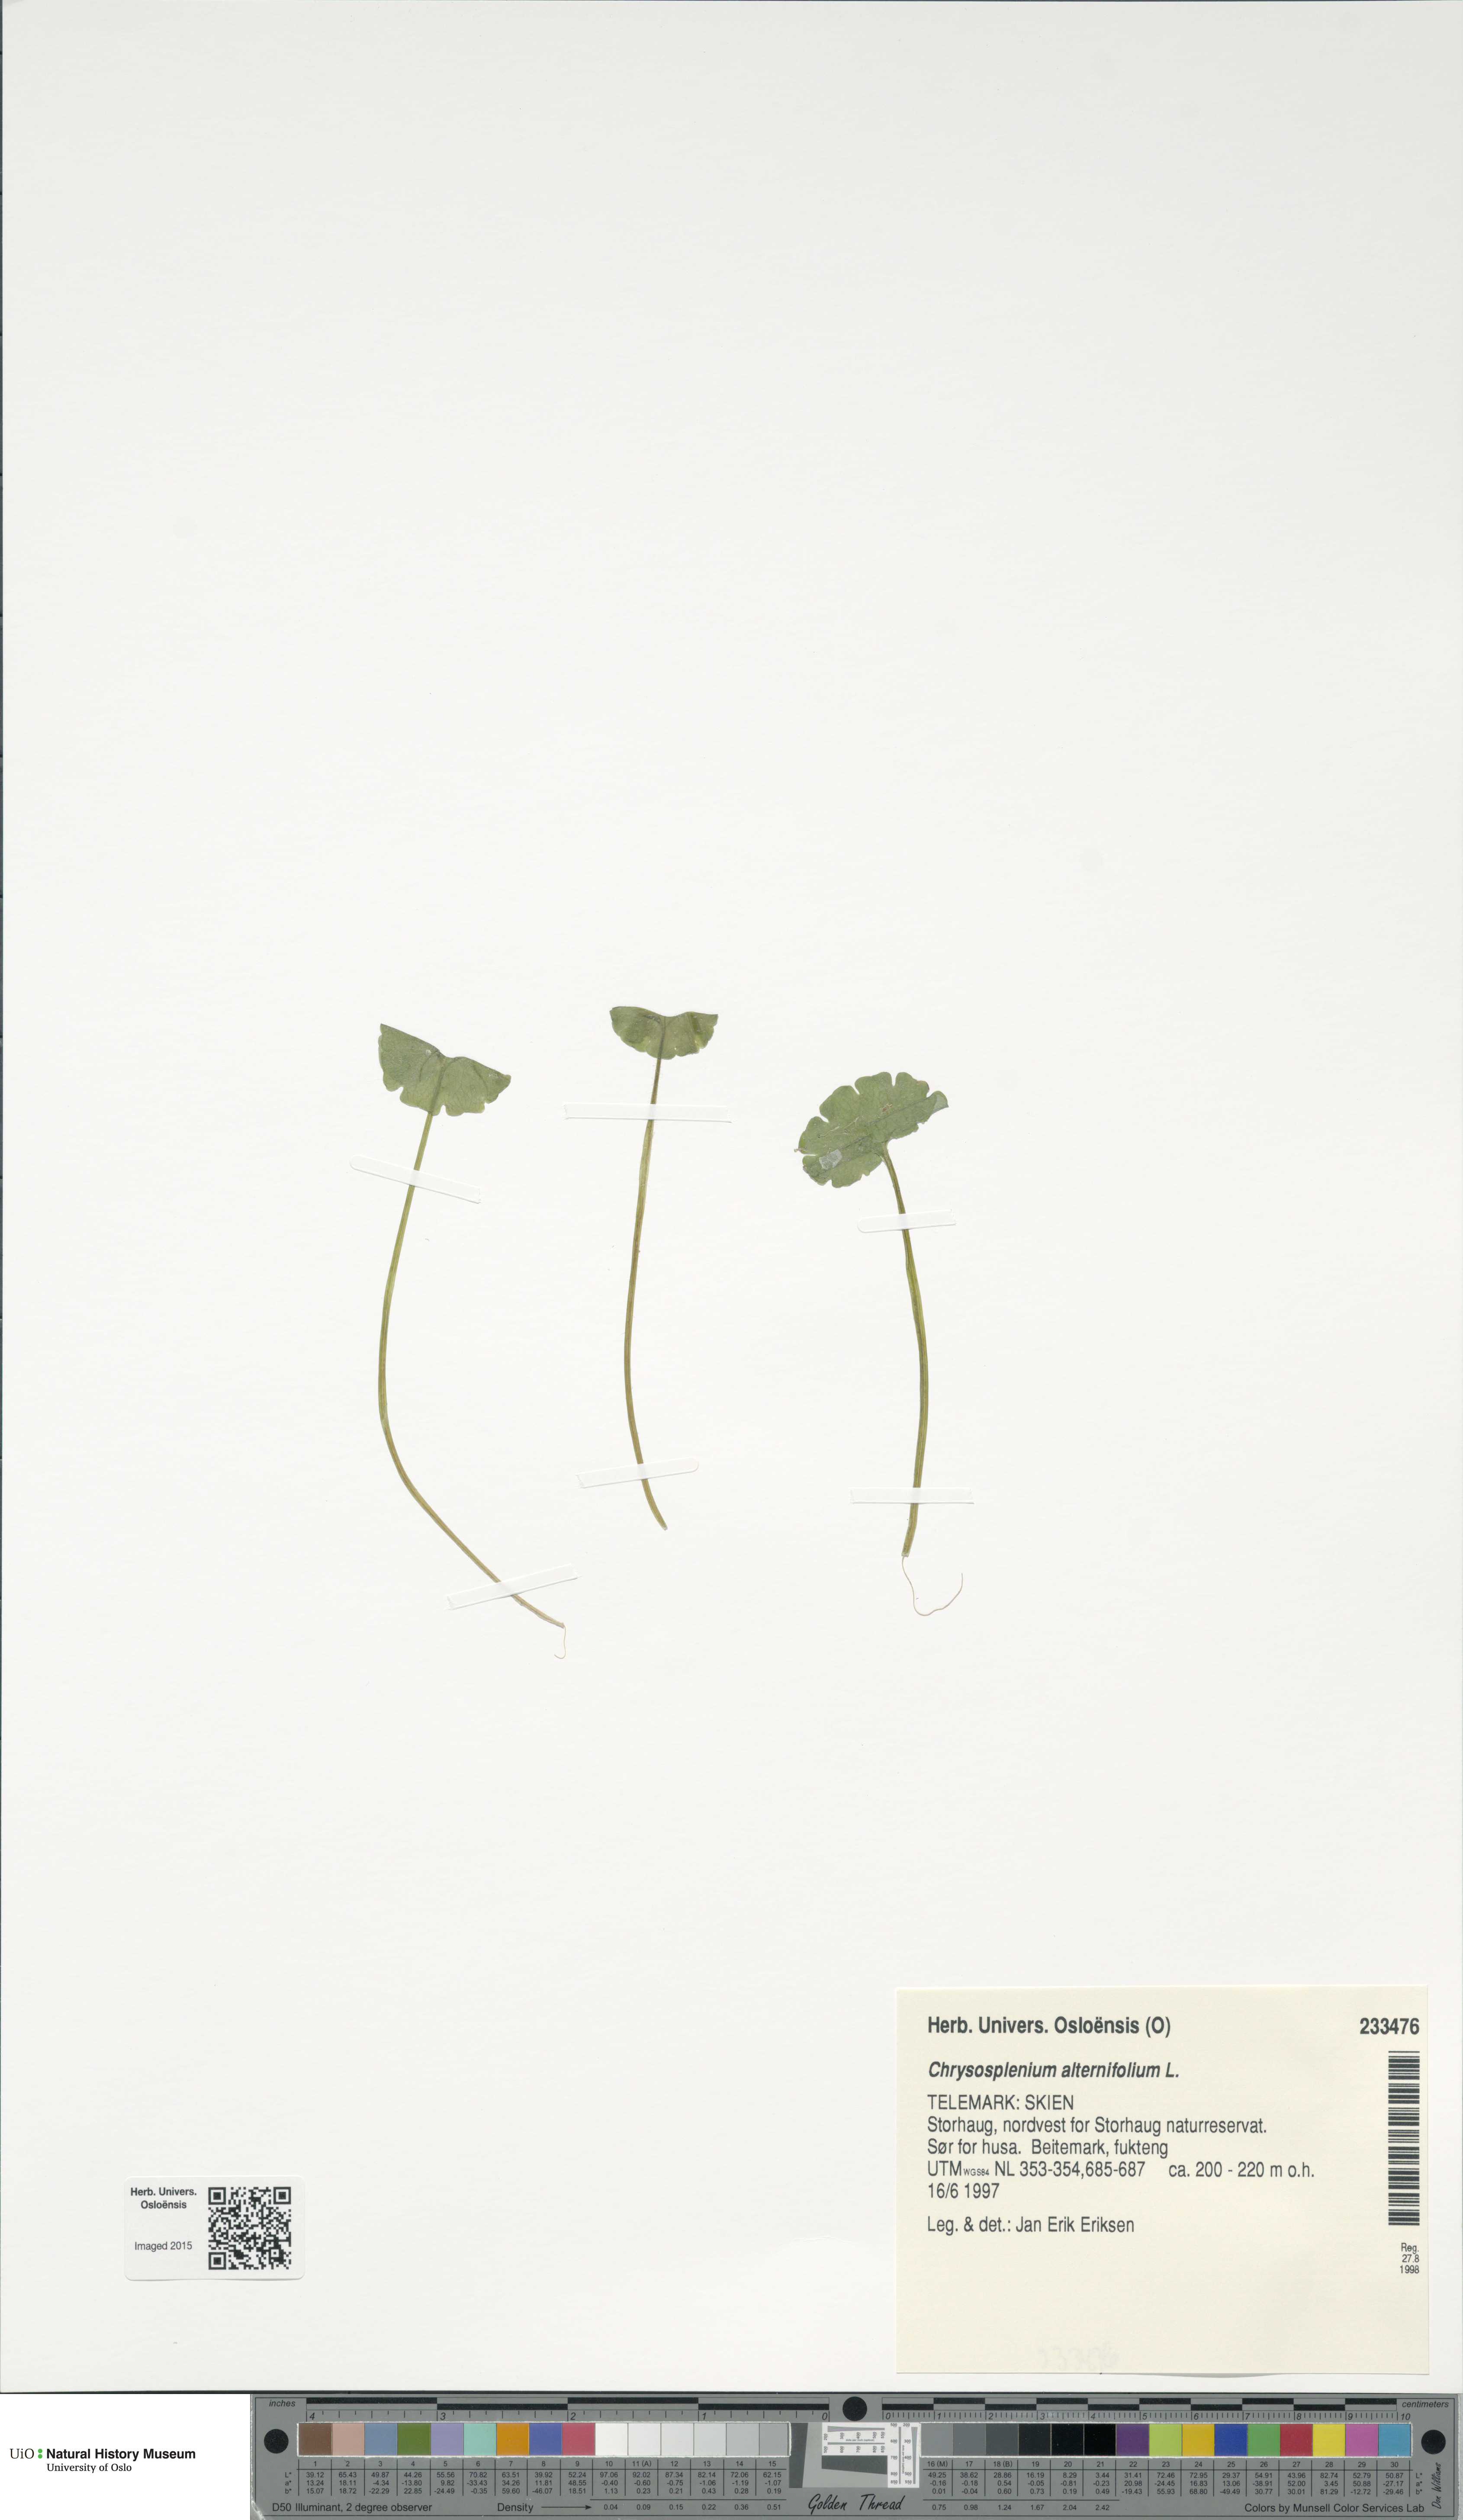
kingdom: Plantae
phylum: Tracheophyta
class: Magnoliopsida
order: Saxifragales
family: Saxifragaceae
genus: Chrysosplenium
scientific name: Chrysosplenium alternifolium
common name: Alternate-leaved golden-saxifrage
